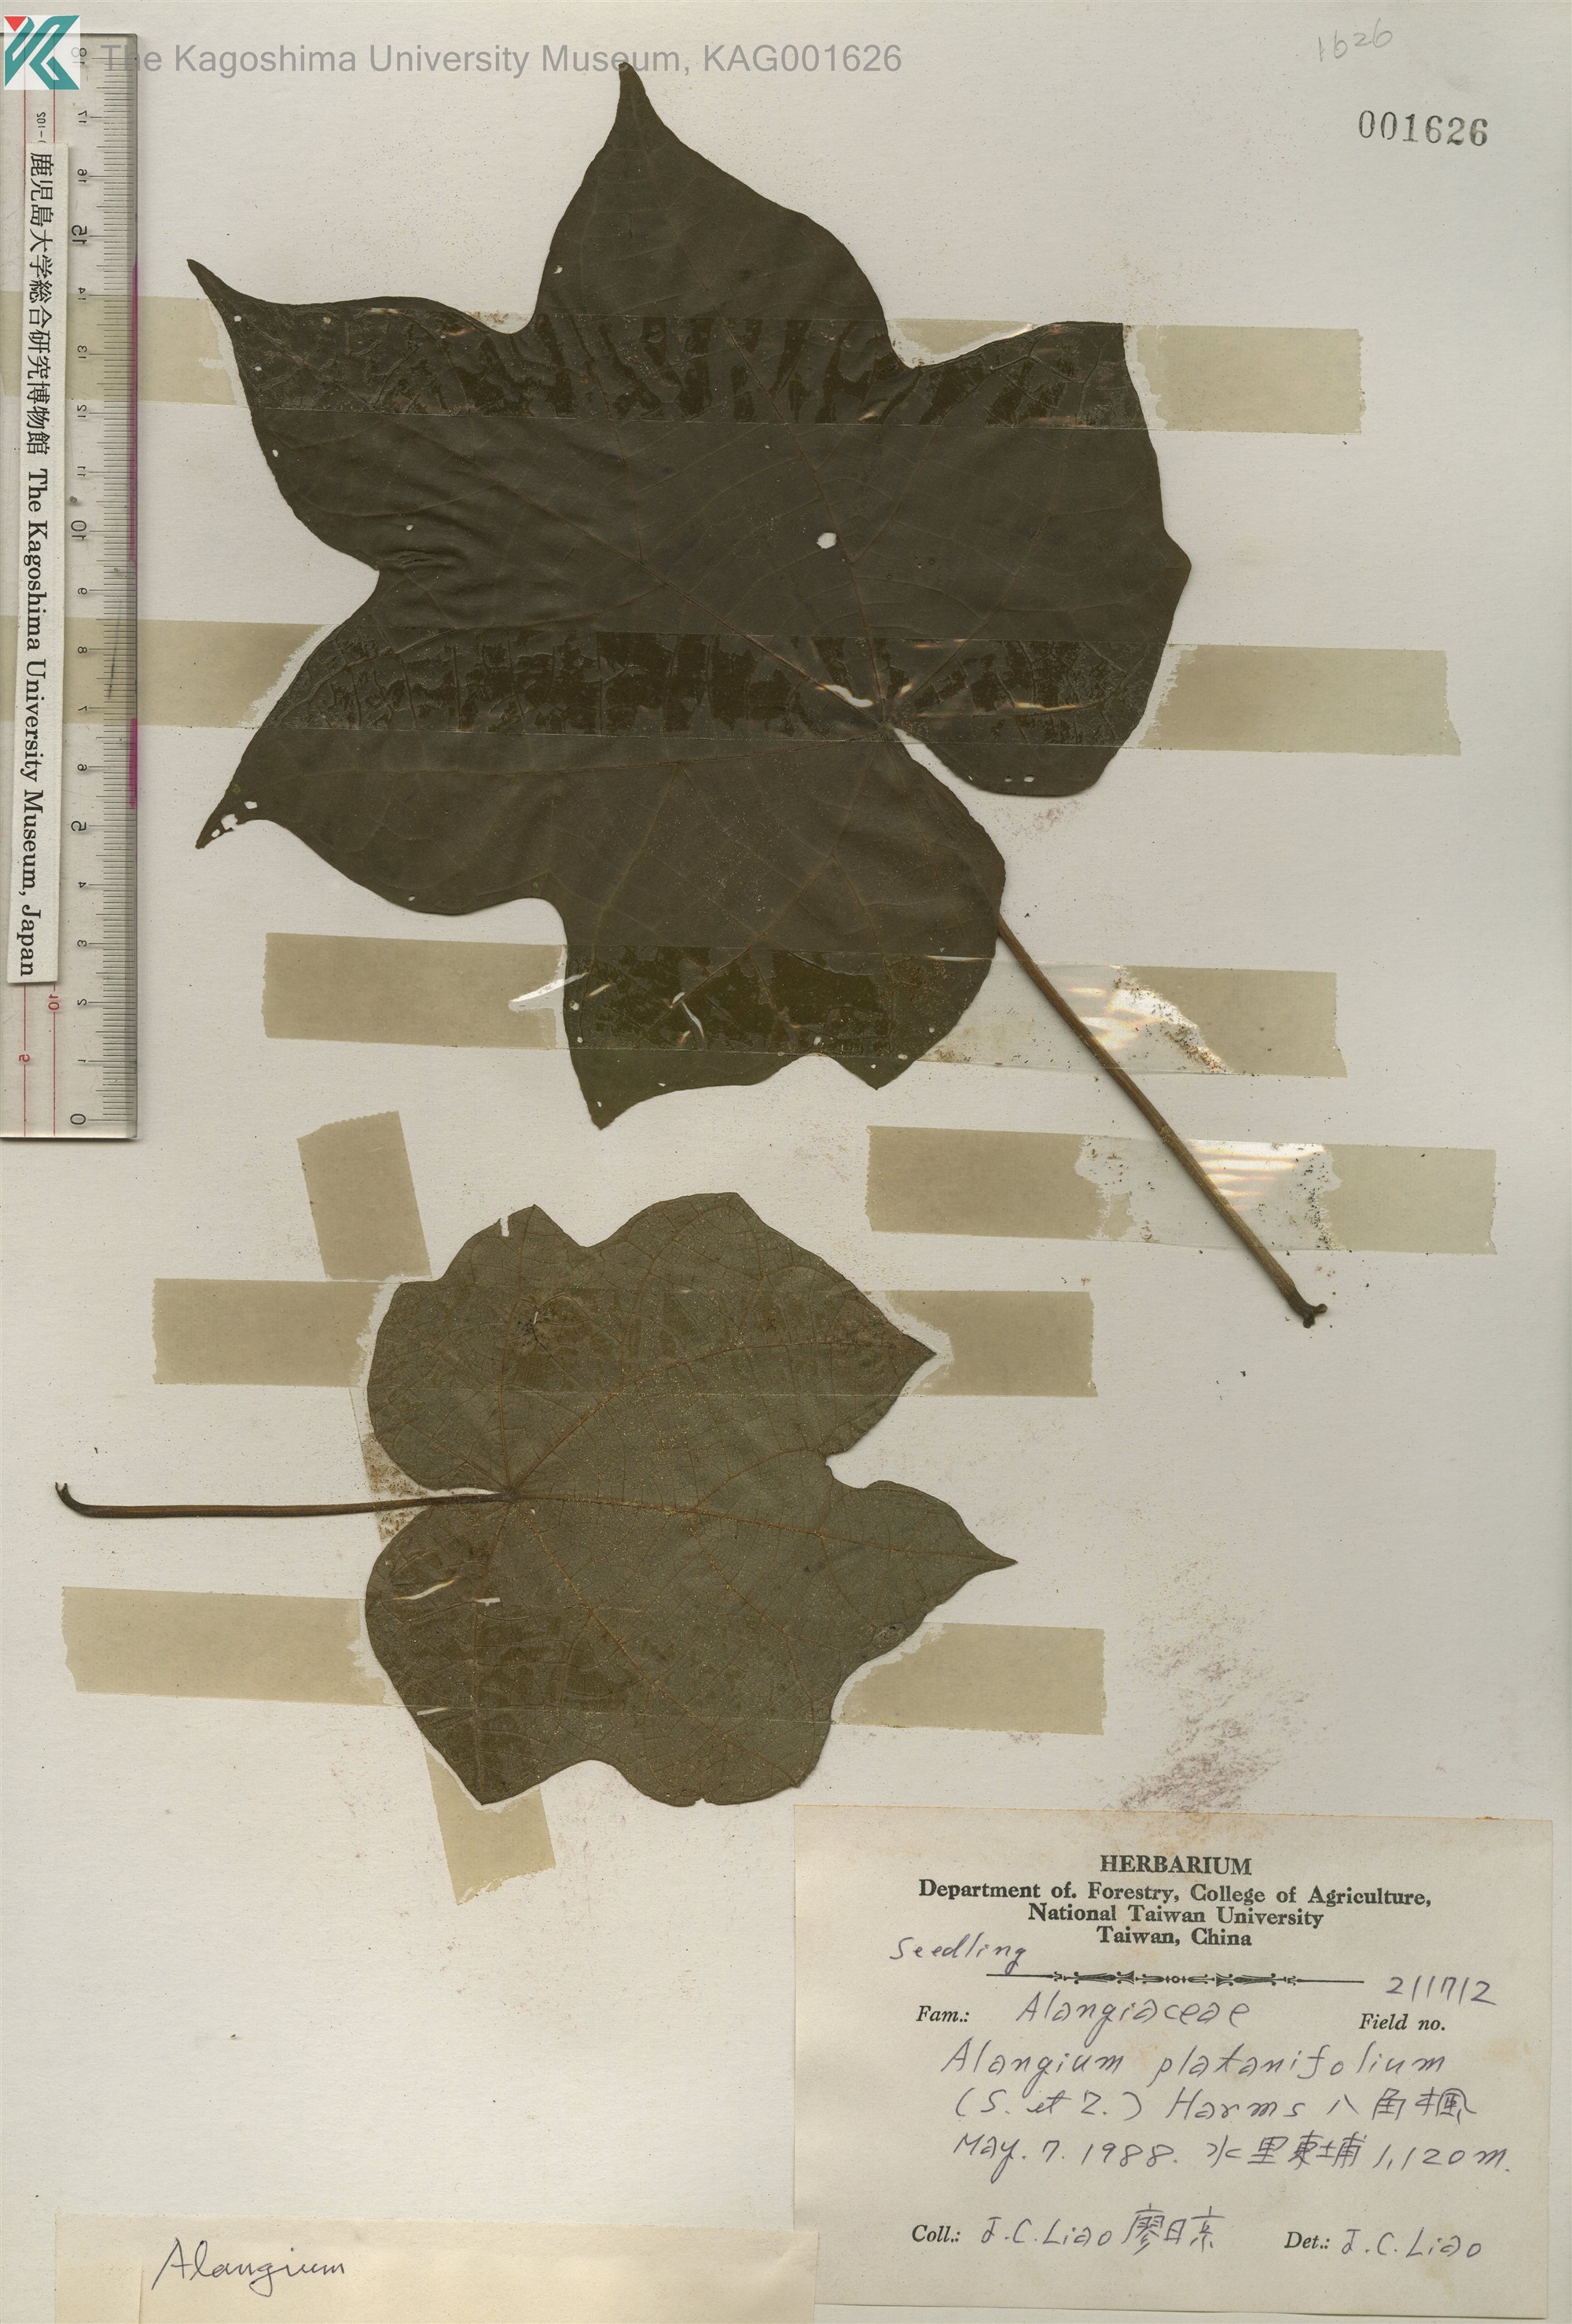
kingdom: Plantae
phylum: Tracheophyta
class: Magnoliopsida
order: Cornales
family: Cornaceae
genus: Alangium
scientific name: Alangium chinense
